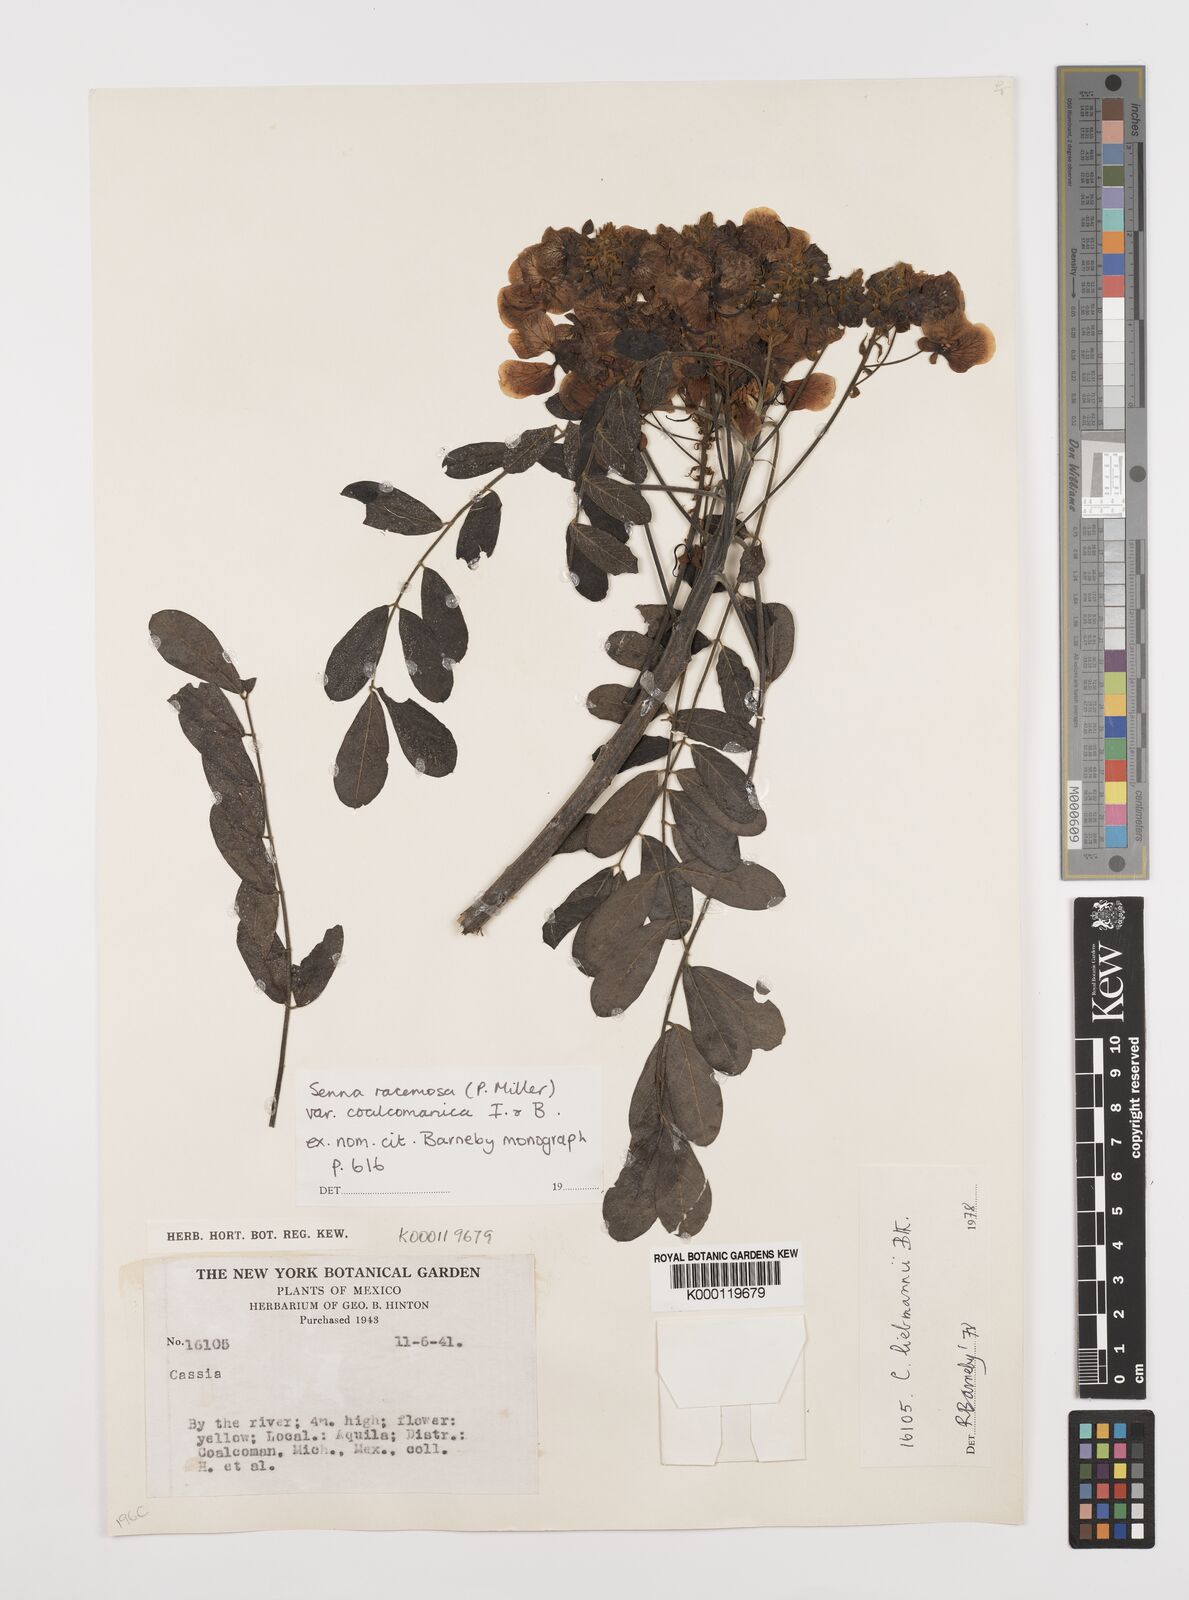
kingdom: Plantae
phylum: Tracheophyta
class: Magnoliopsida
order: Fabales
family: Fabaceae
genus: Senna
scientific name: Senna racemosa
